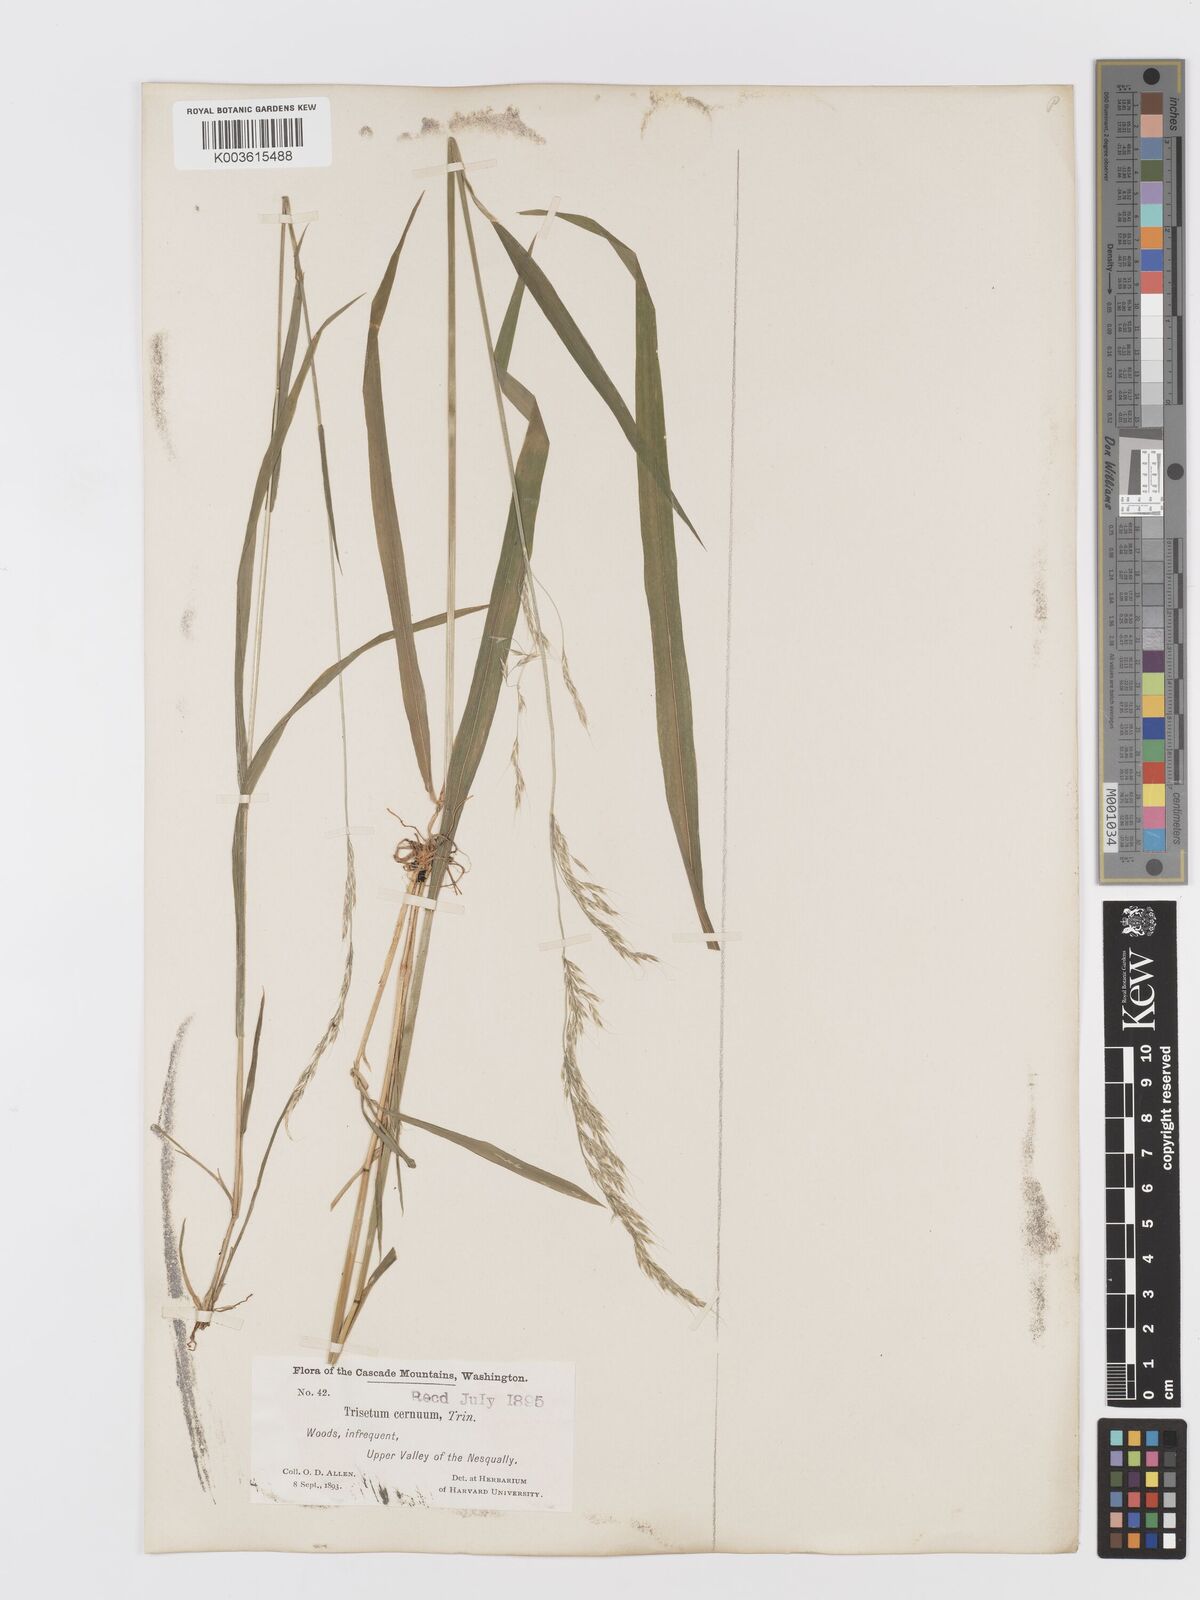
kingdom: Plantae
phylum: Tracheophyta
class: Liliopsida
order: Poales
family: Poaceae
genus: Graphephorum
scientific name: Graphephorum cernuum
